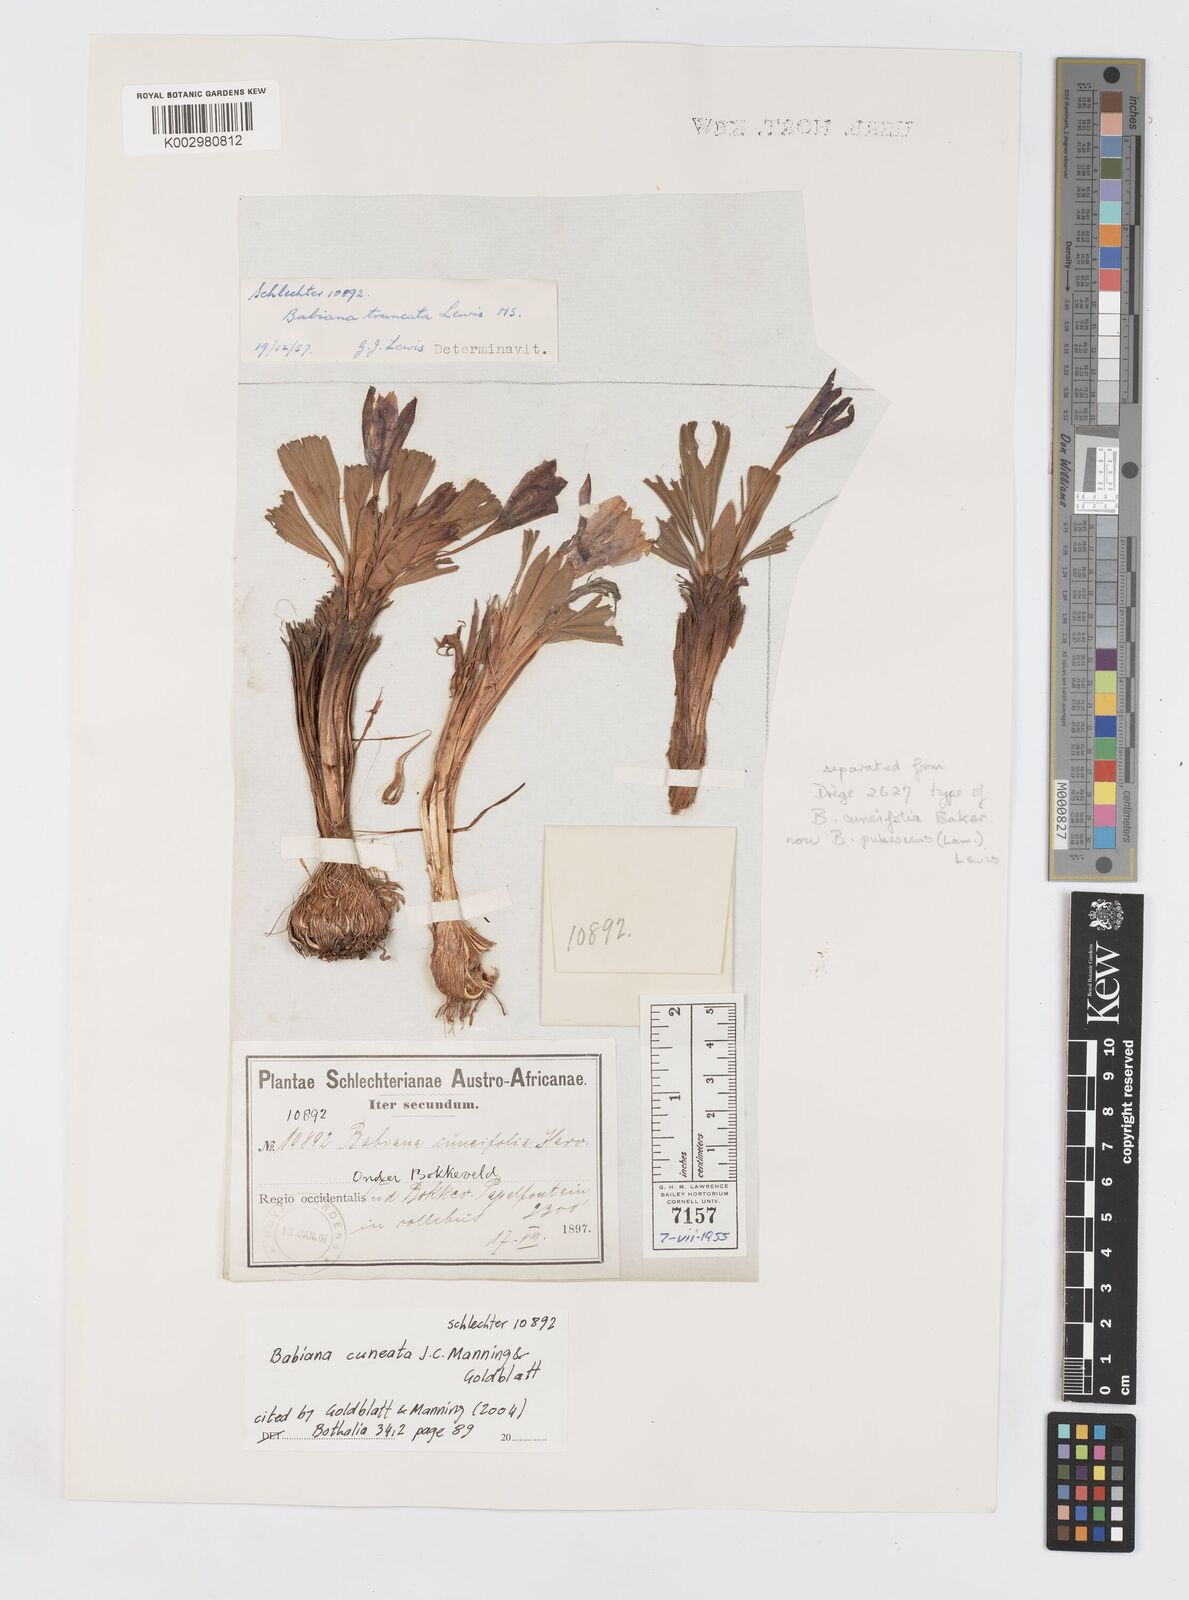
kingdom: Plantae
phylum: Tracheophyta
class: Liliopsida
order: Asparagales
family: Iridaceae
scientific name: Iridaceae
